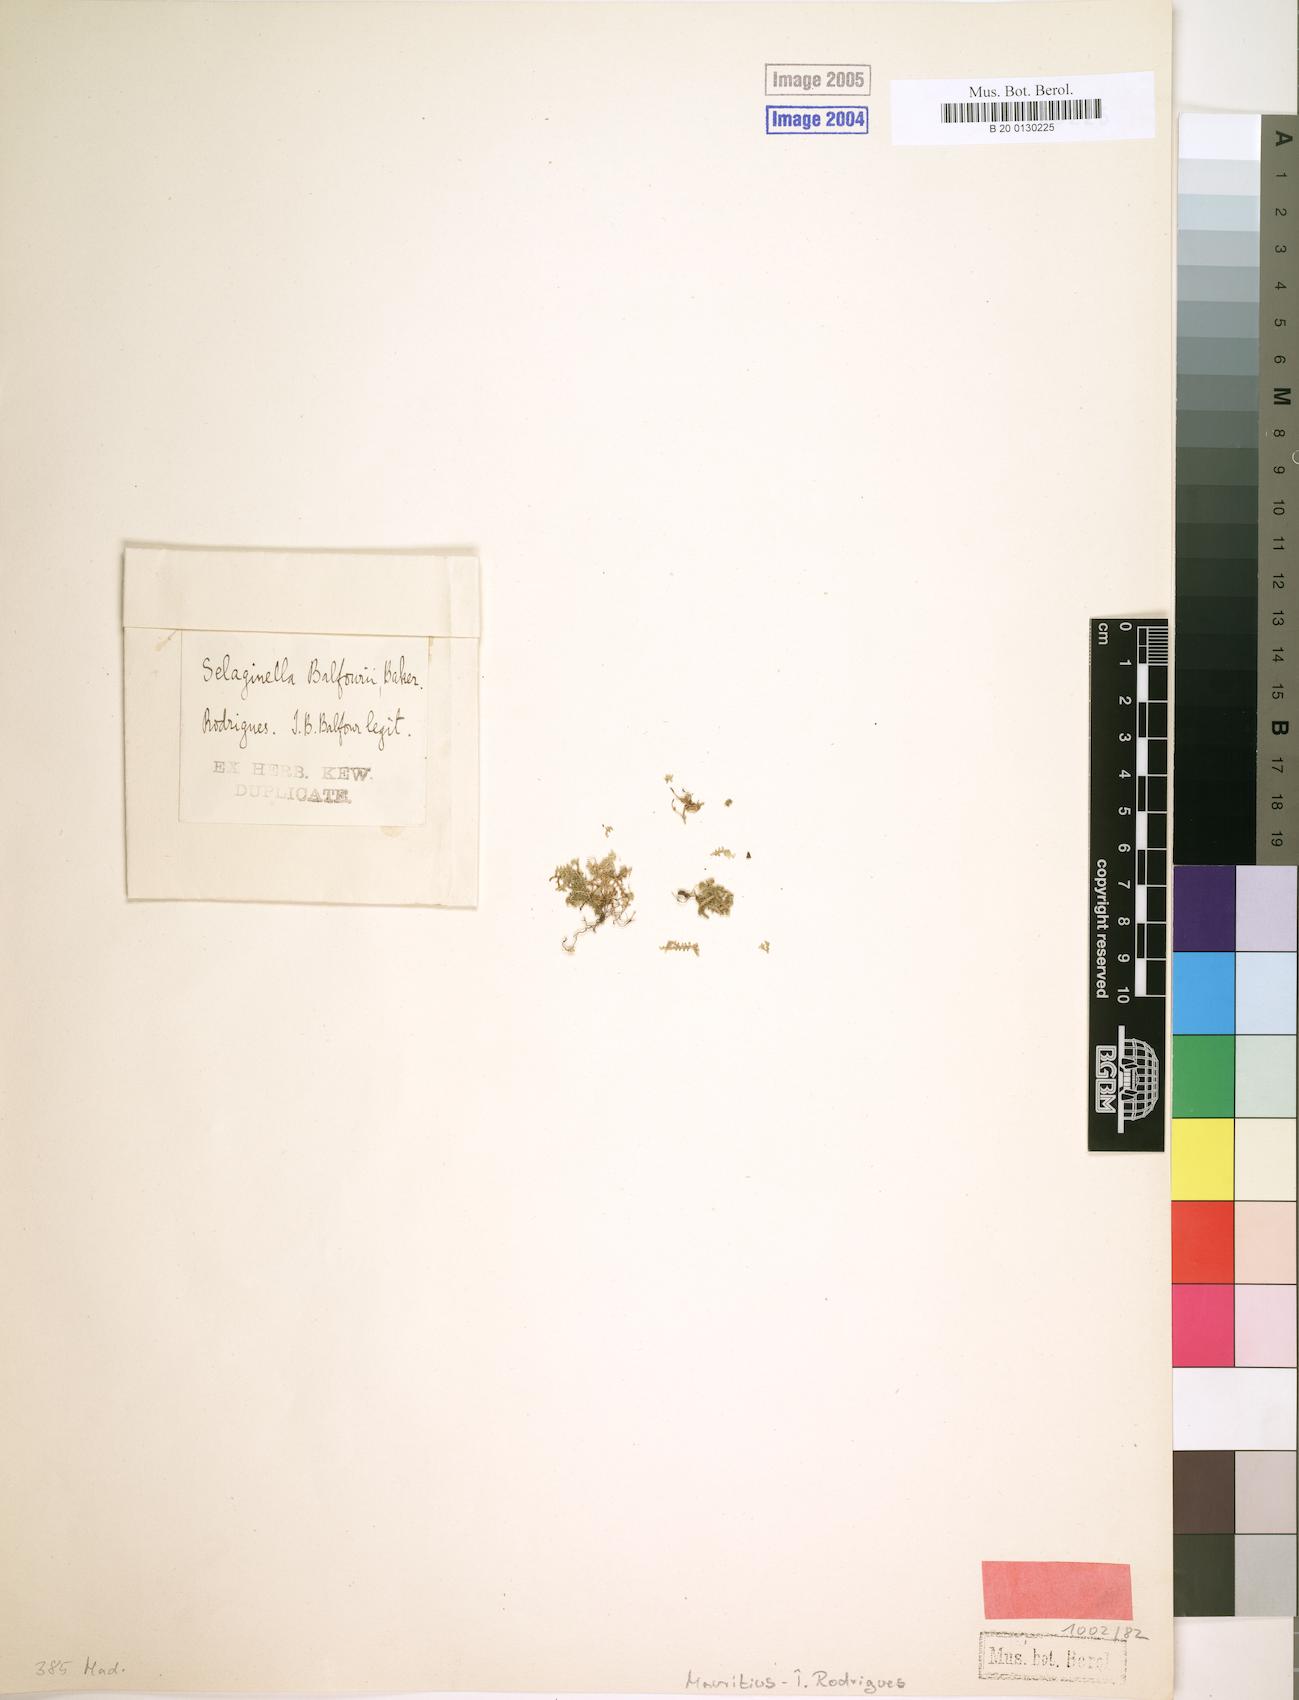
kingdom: Plantae
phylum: Tracheophyta
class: Lycopodiopsida
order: Selaginellales
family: Selaginellaceae
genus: Selaginella
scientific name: Selaginella balfourii
